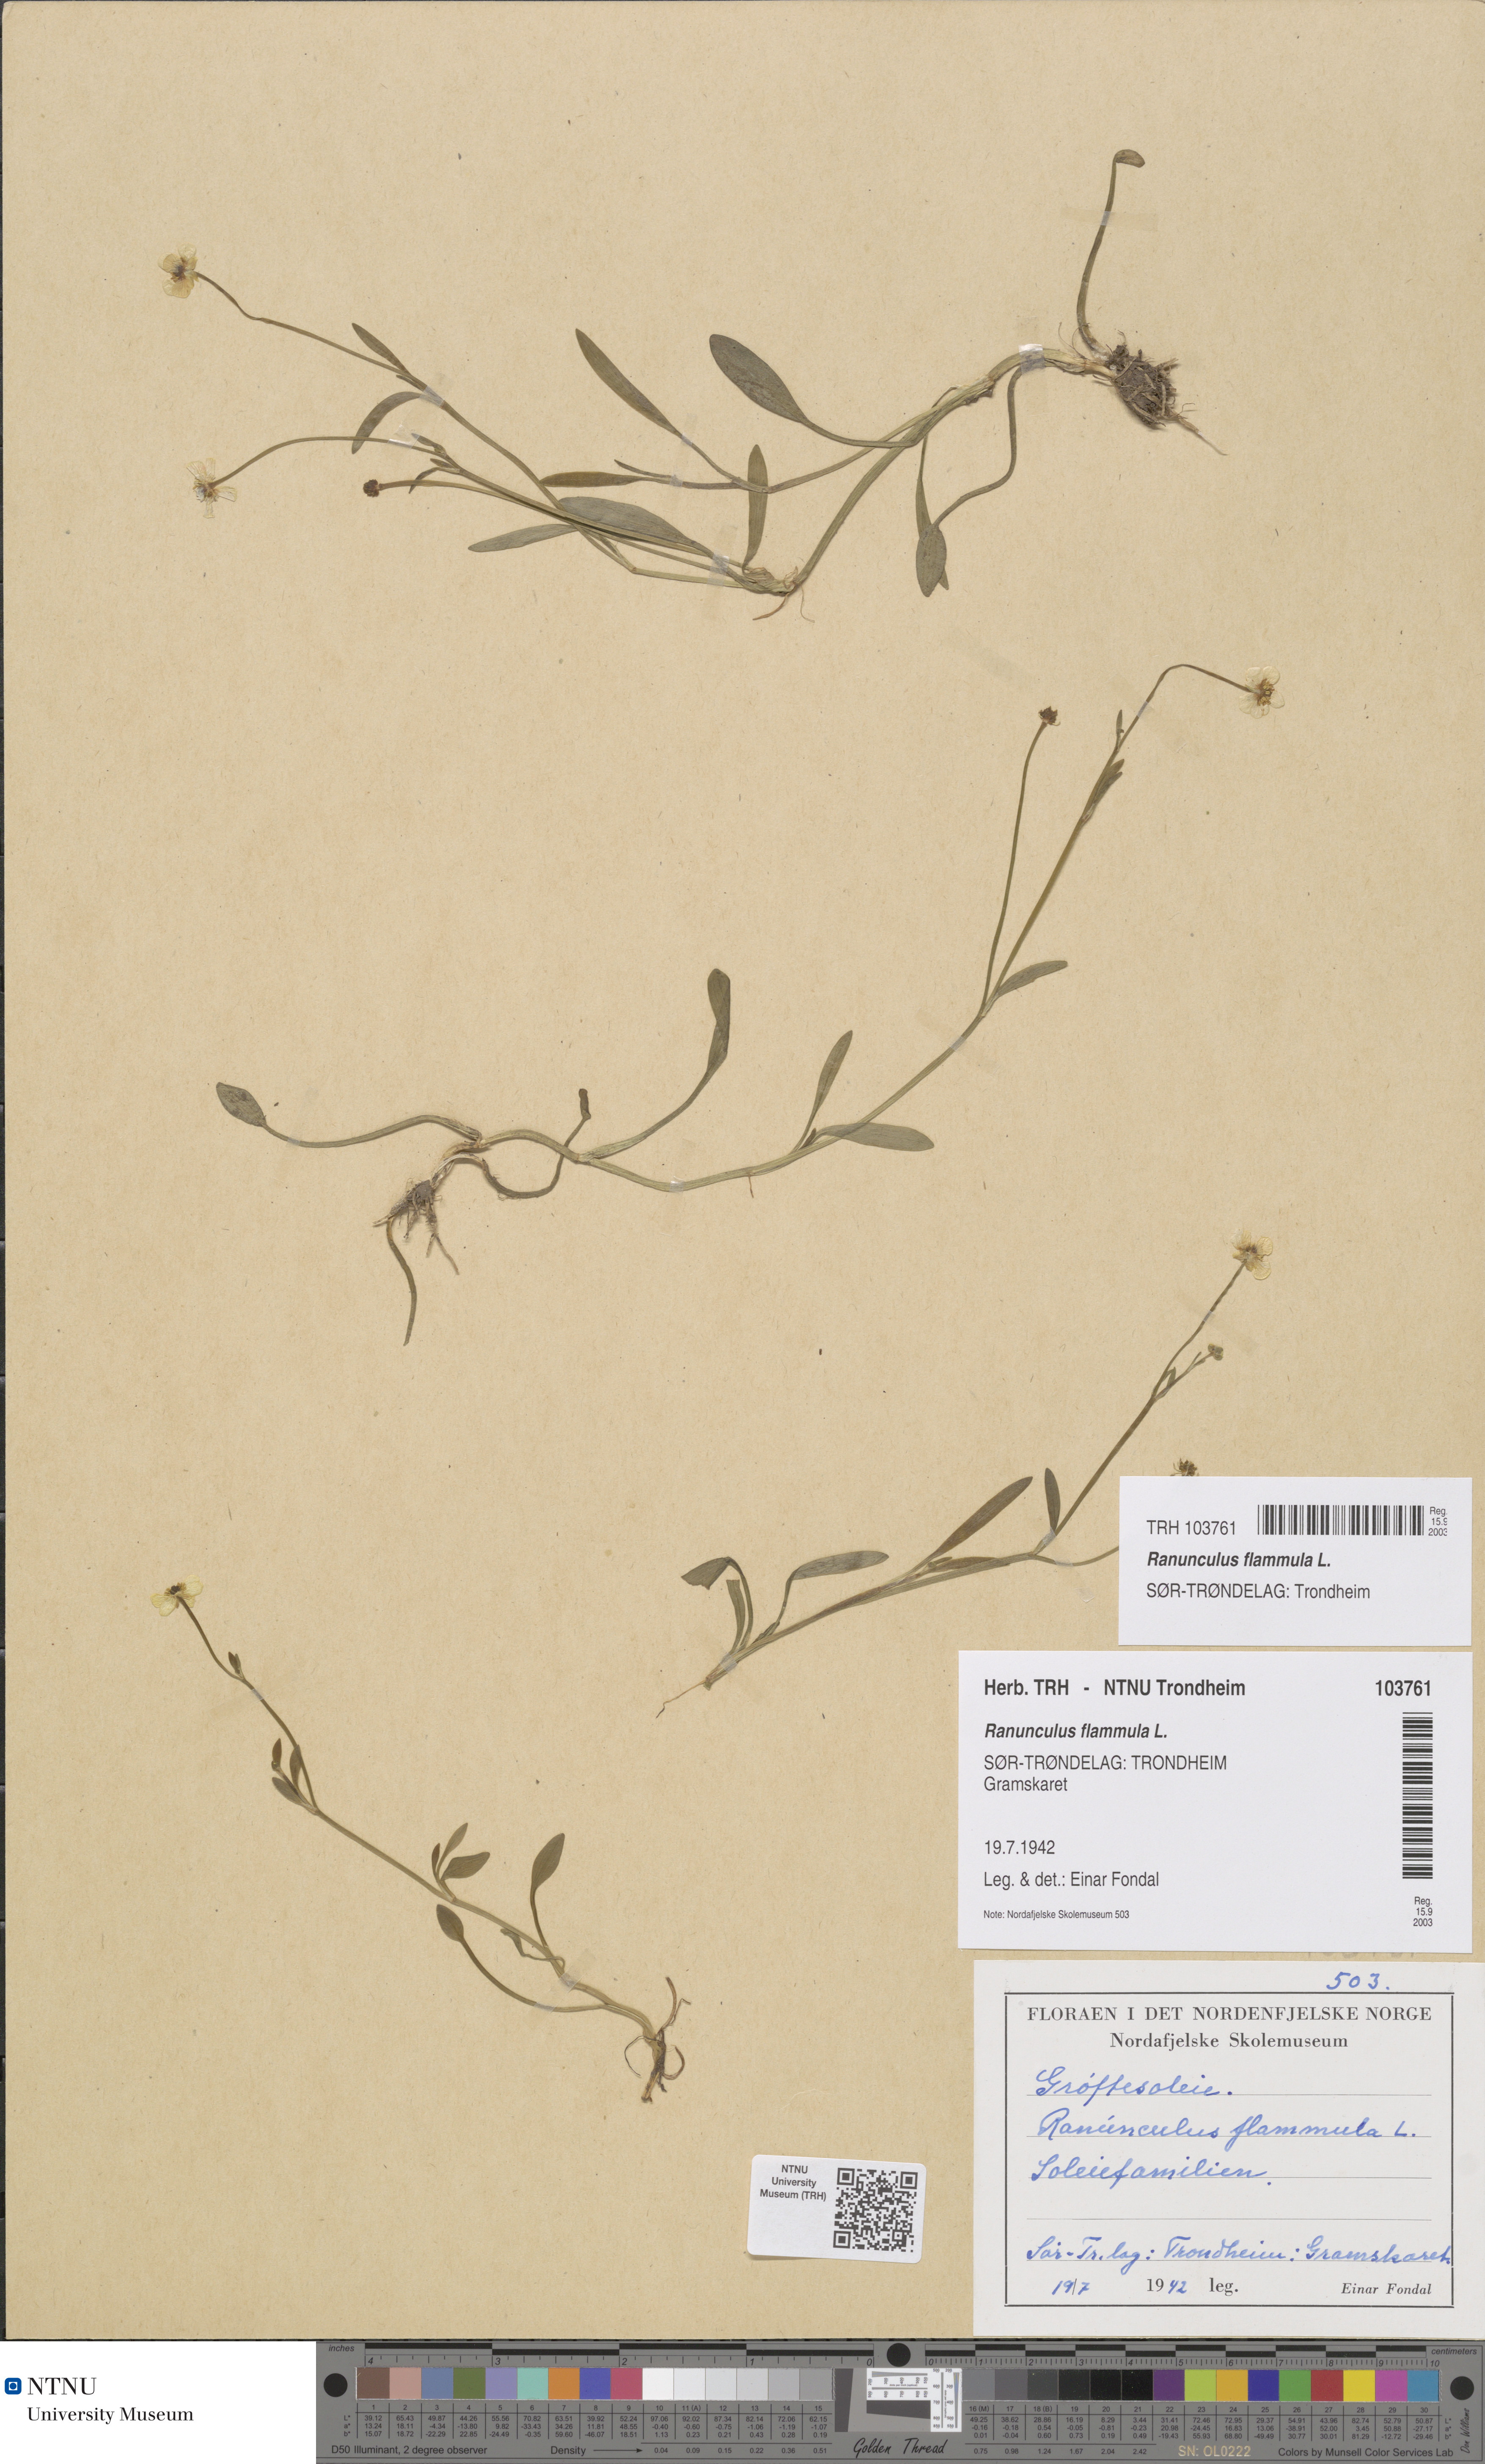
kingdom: Plantae
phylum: Tracheophyta
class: Magnoliopsida
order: Ranunculales
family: Ranunculaceae
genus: Ranunculus
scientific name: Ranunculus flammula
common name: Lesser spearwort
